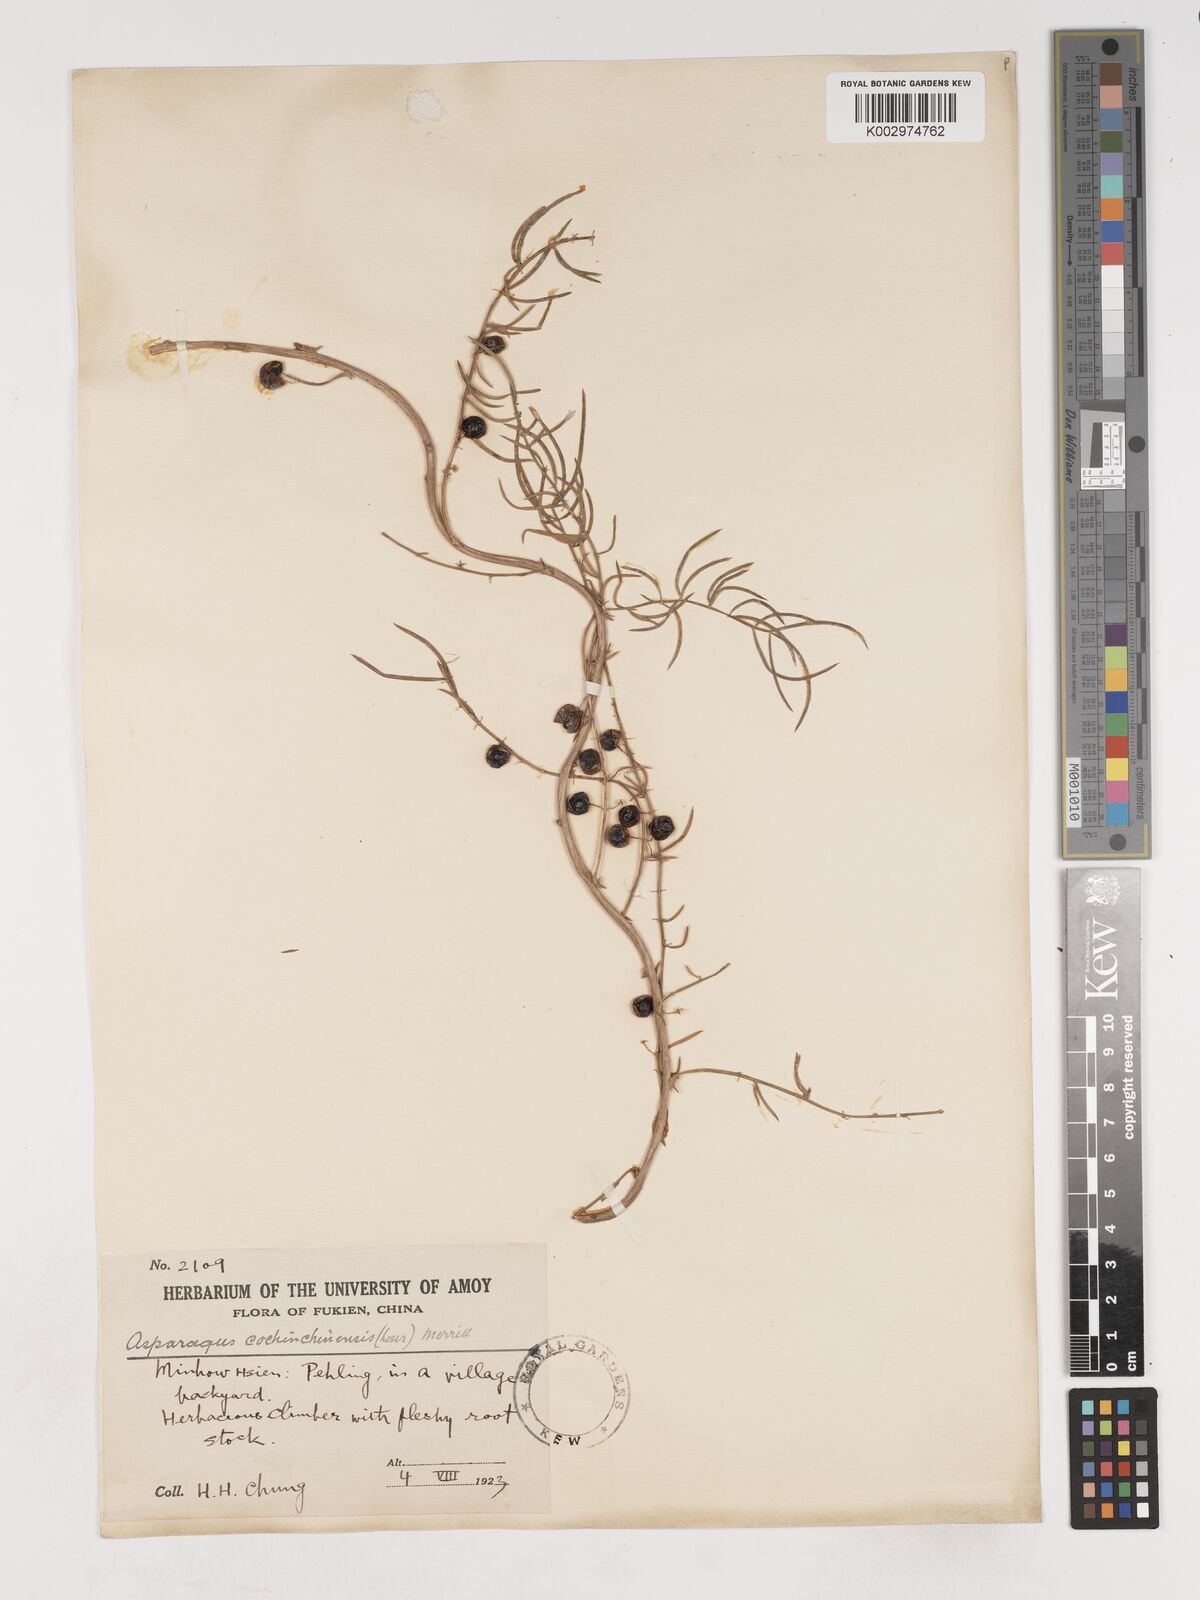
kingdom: Plantae
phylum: Tracheophyta
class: Liliopsida
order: Asparagales
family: Asparagaceae
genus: Asparagus
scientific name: Asparagus cochinchinensis
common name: Chinese asparagus
